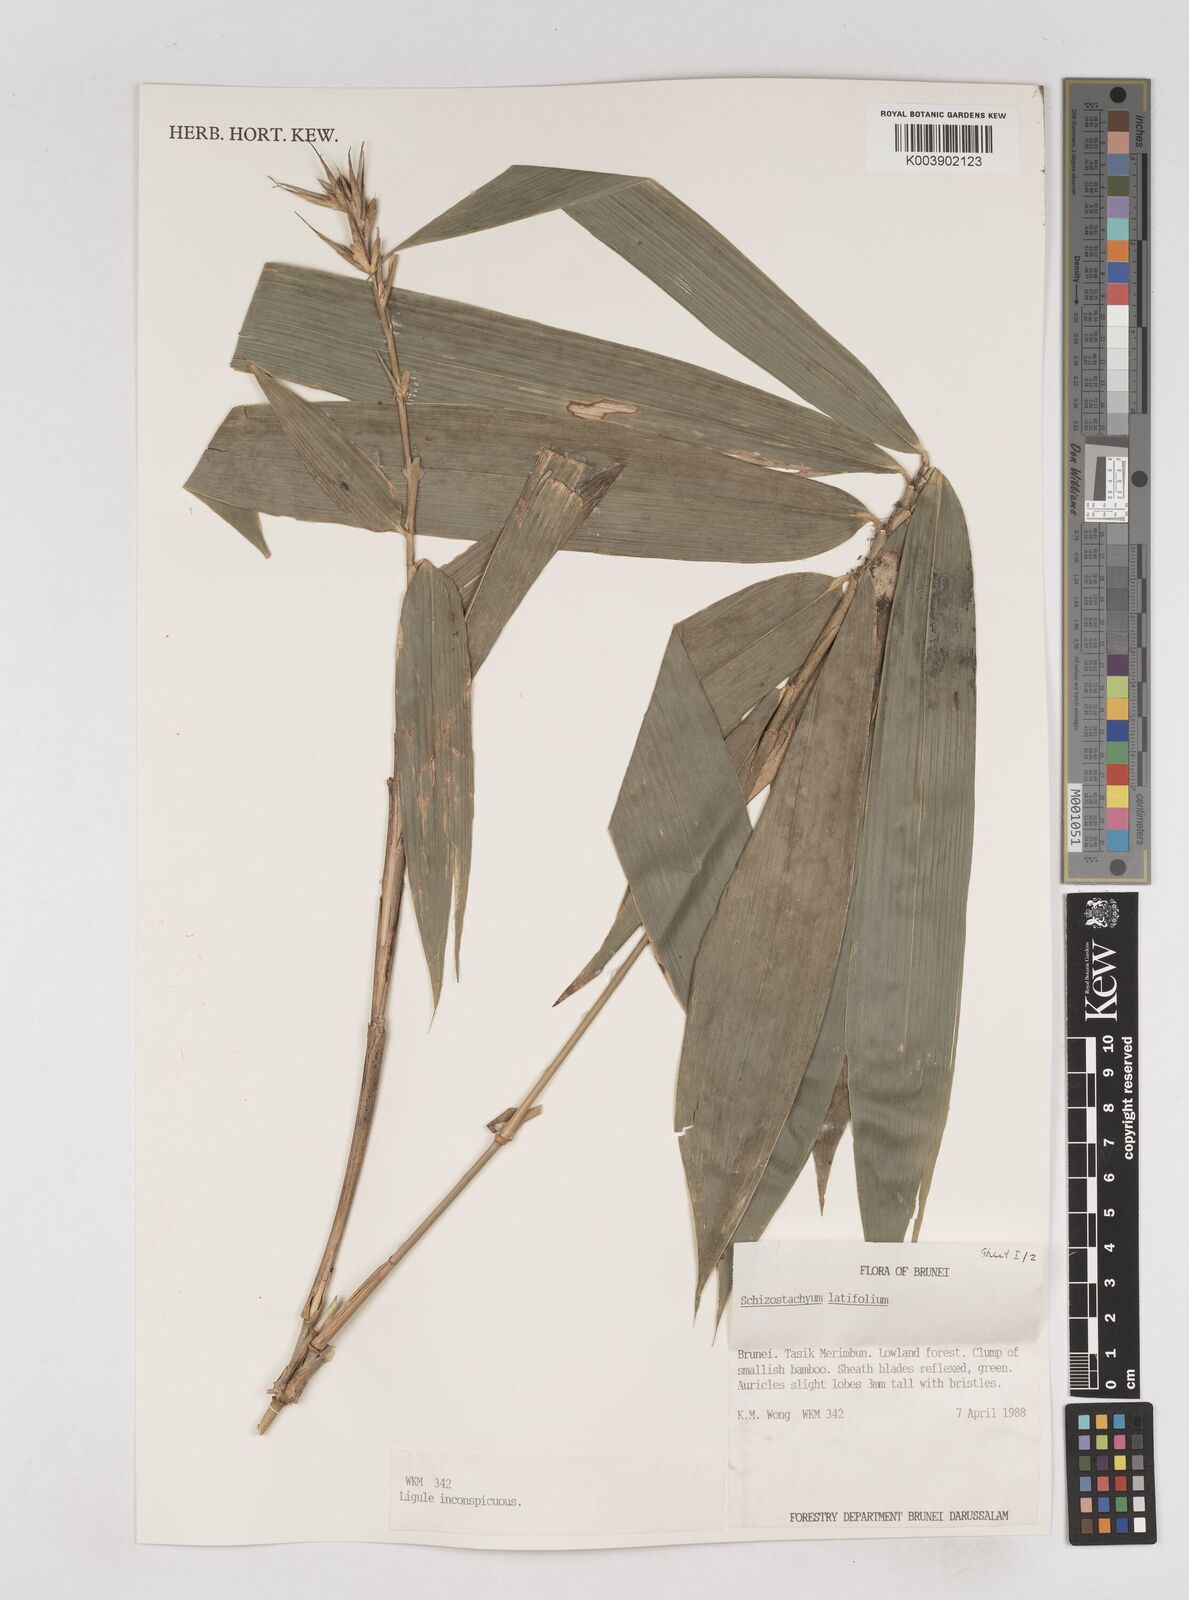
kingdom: Plantae
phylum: Tracheophyta
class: Liliopsida
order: Poales
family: Poaceae
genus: Schizostachyum
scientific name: Schizostachyum
